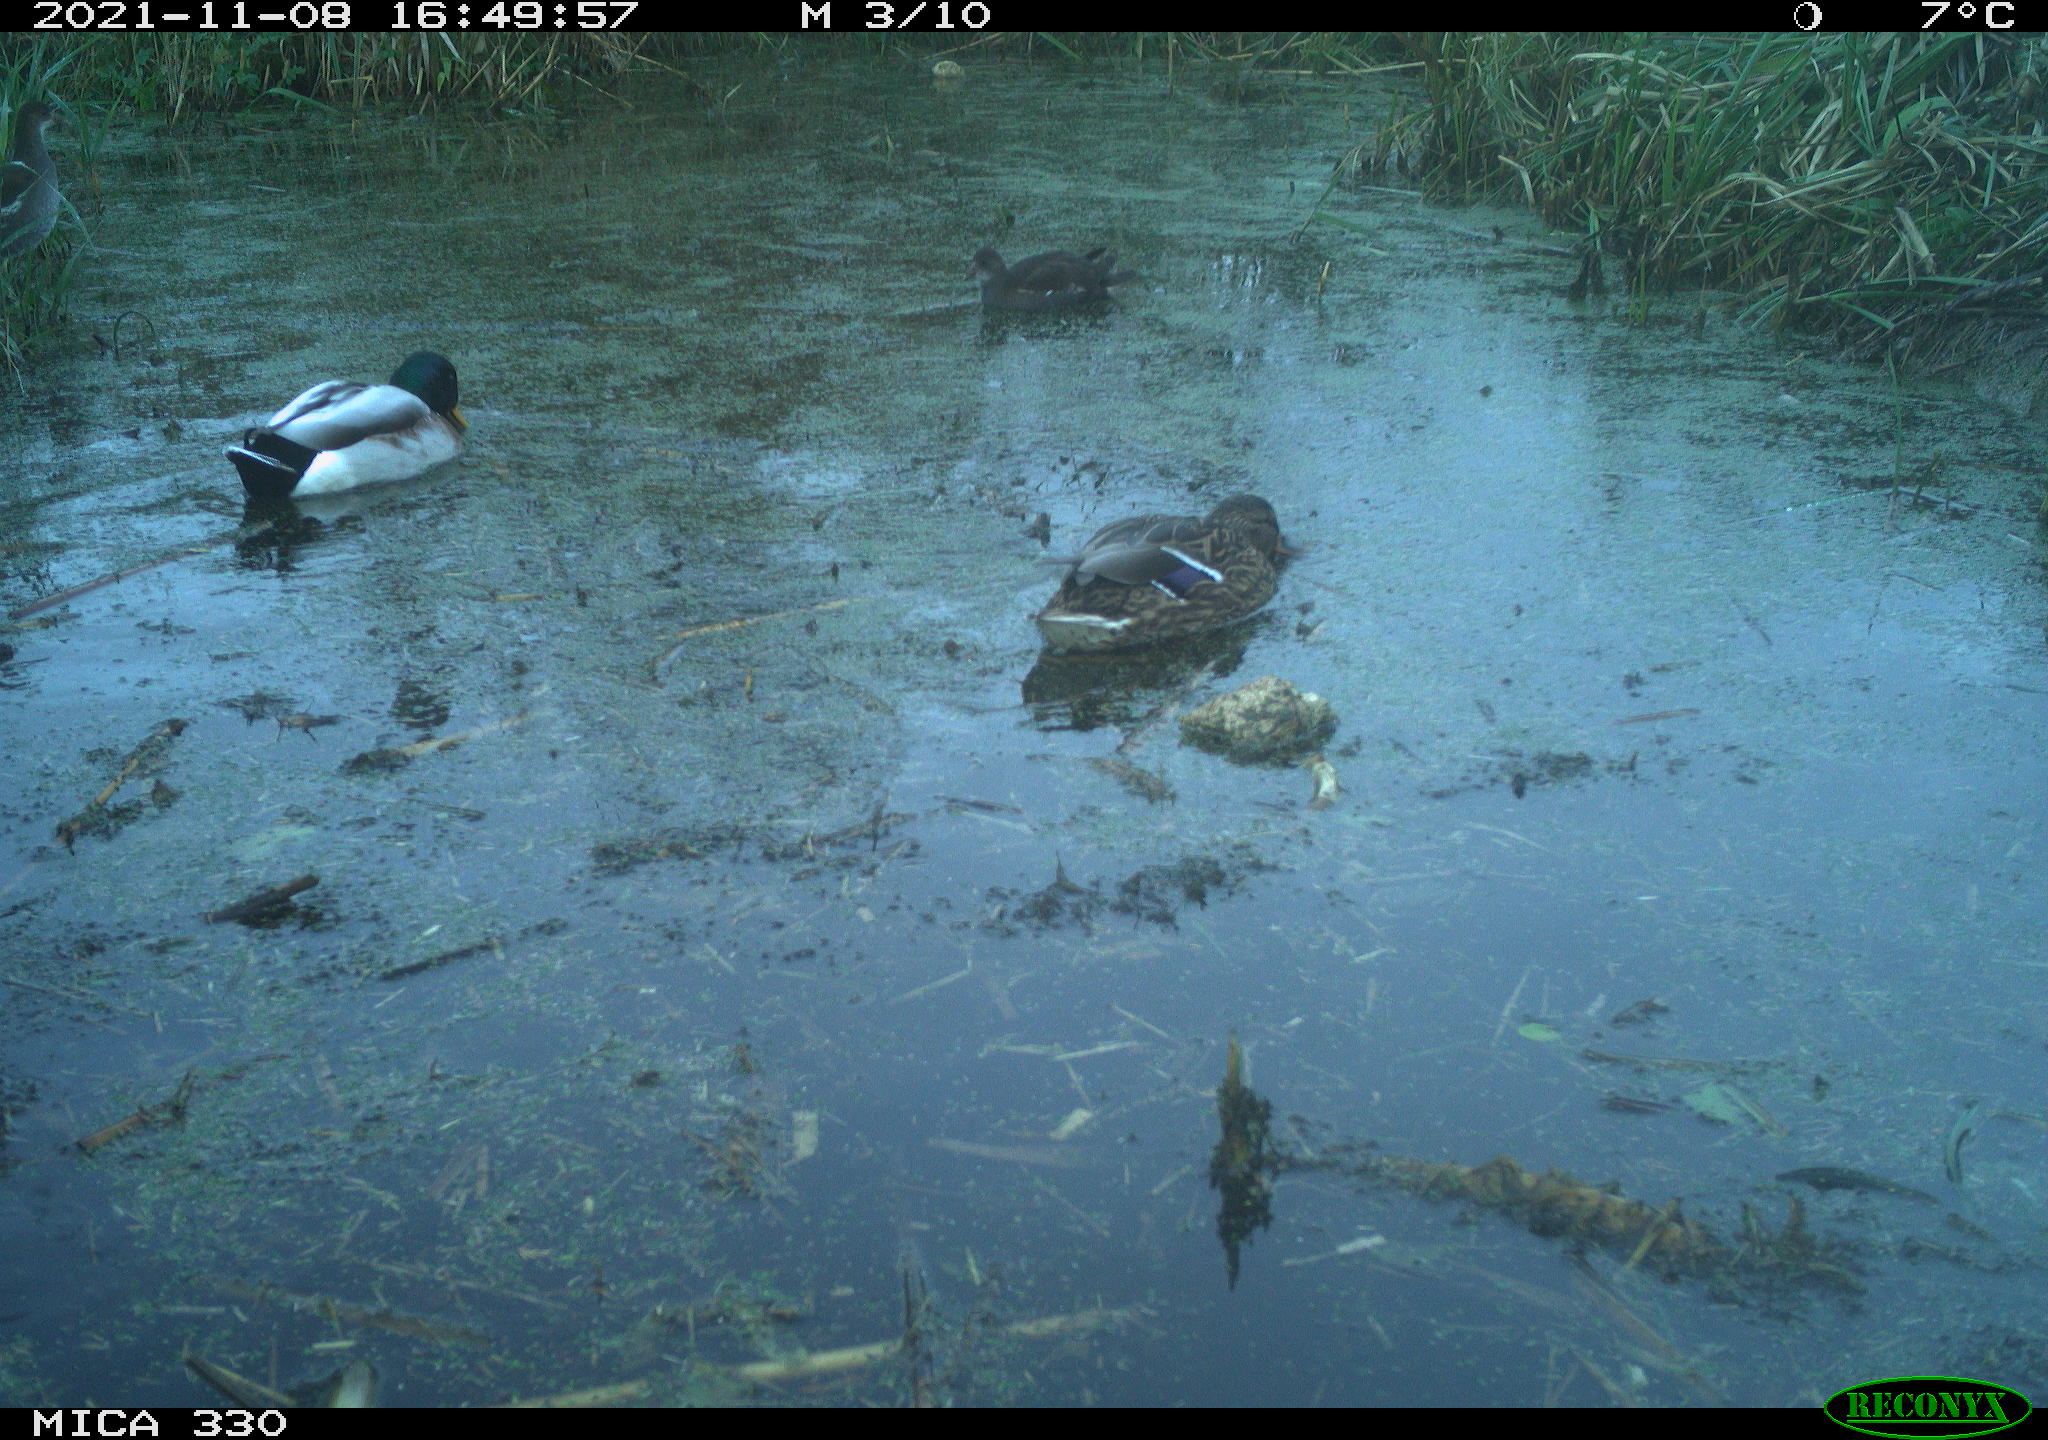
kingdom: Animalia
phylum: Chordata
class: Aves
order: Gruiformes
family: Rallidae
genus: Gallinula
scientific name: Gallinula chloropus
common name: Common moorhen
